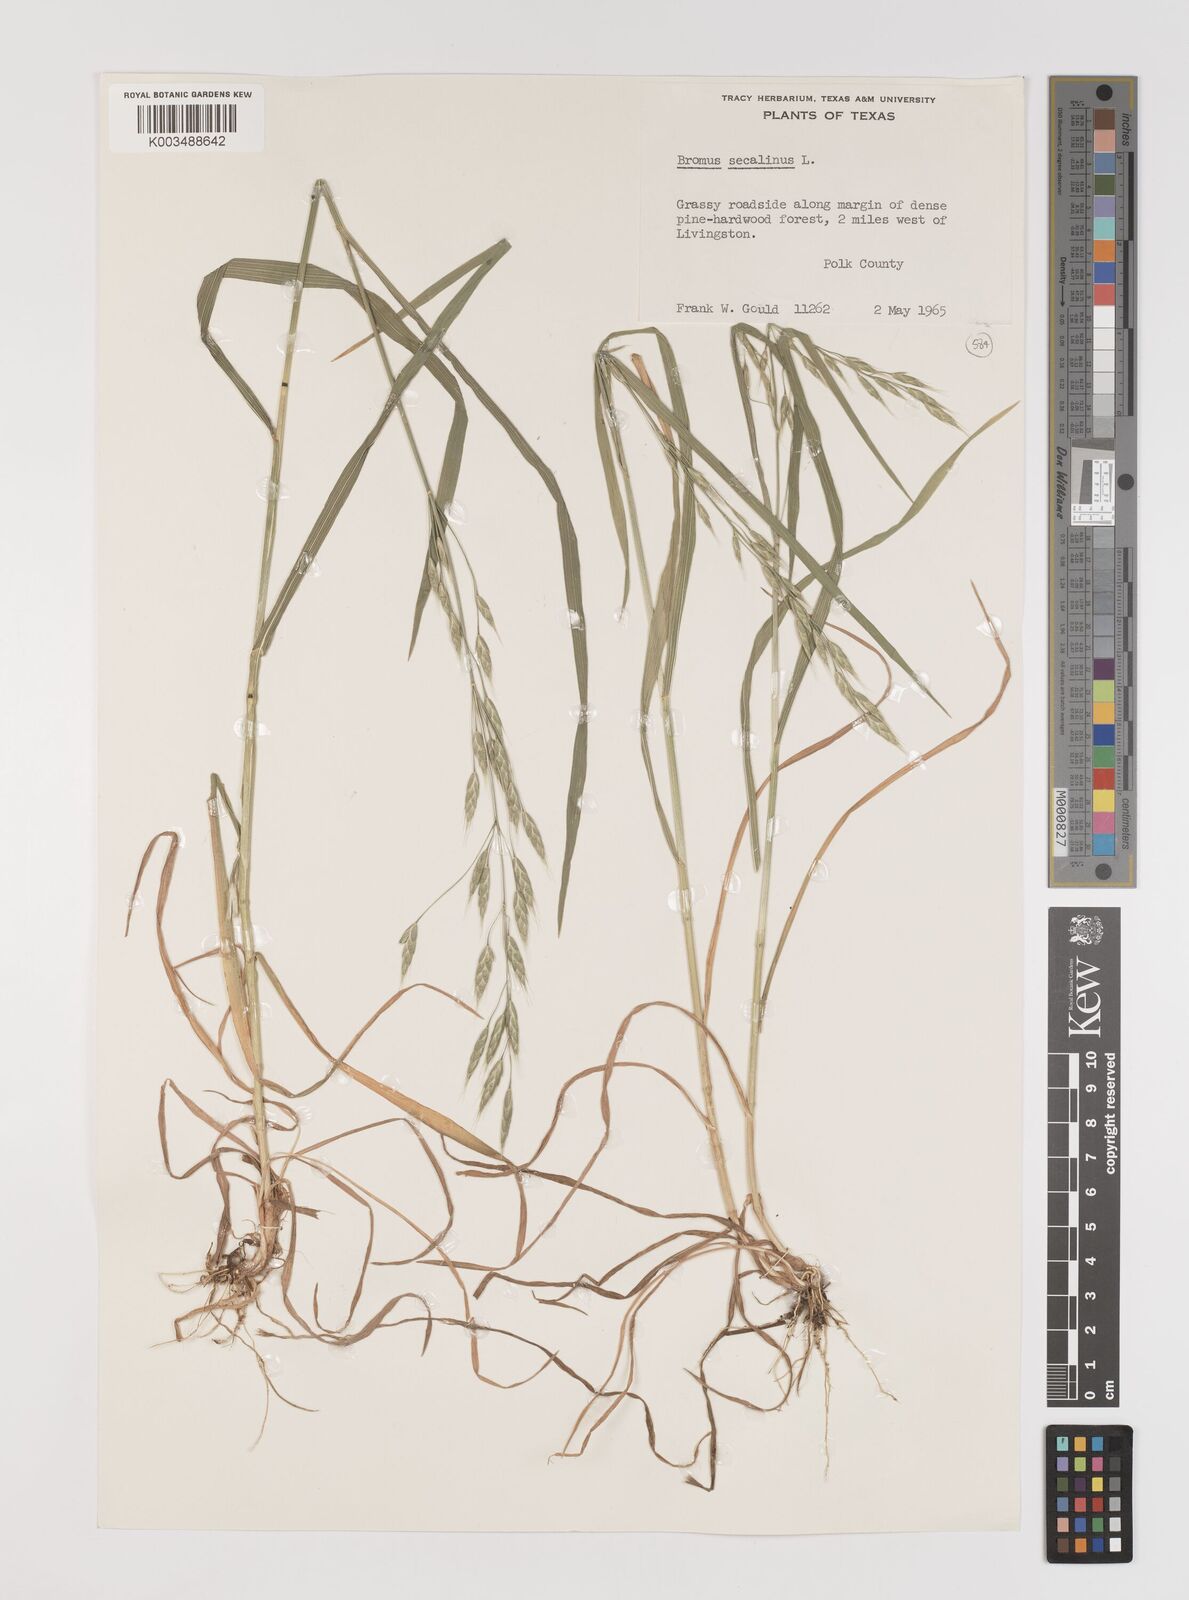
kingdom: Plantae
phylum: Tracheophyta
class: Liliopsida
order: Poales
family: Poaceae
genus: Bromus
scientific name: Bromus secalinus
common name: Rye brome
